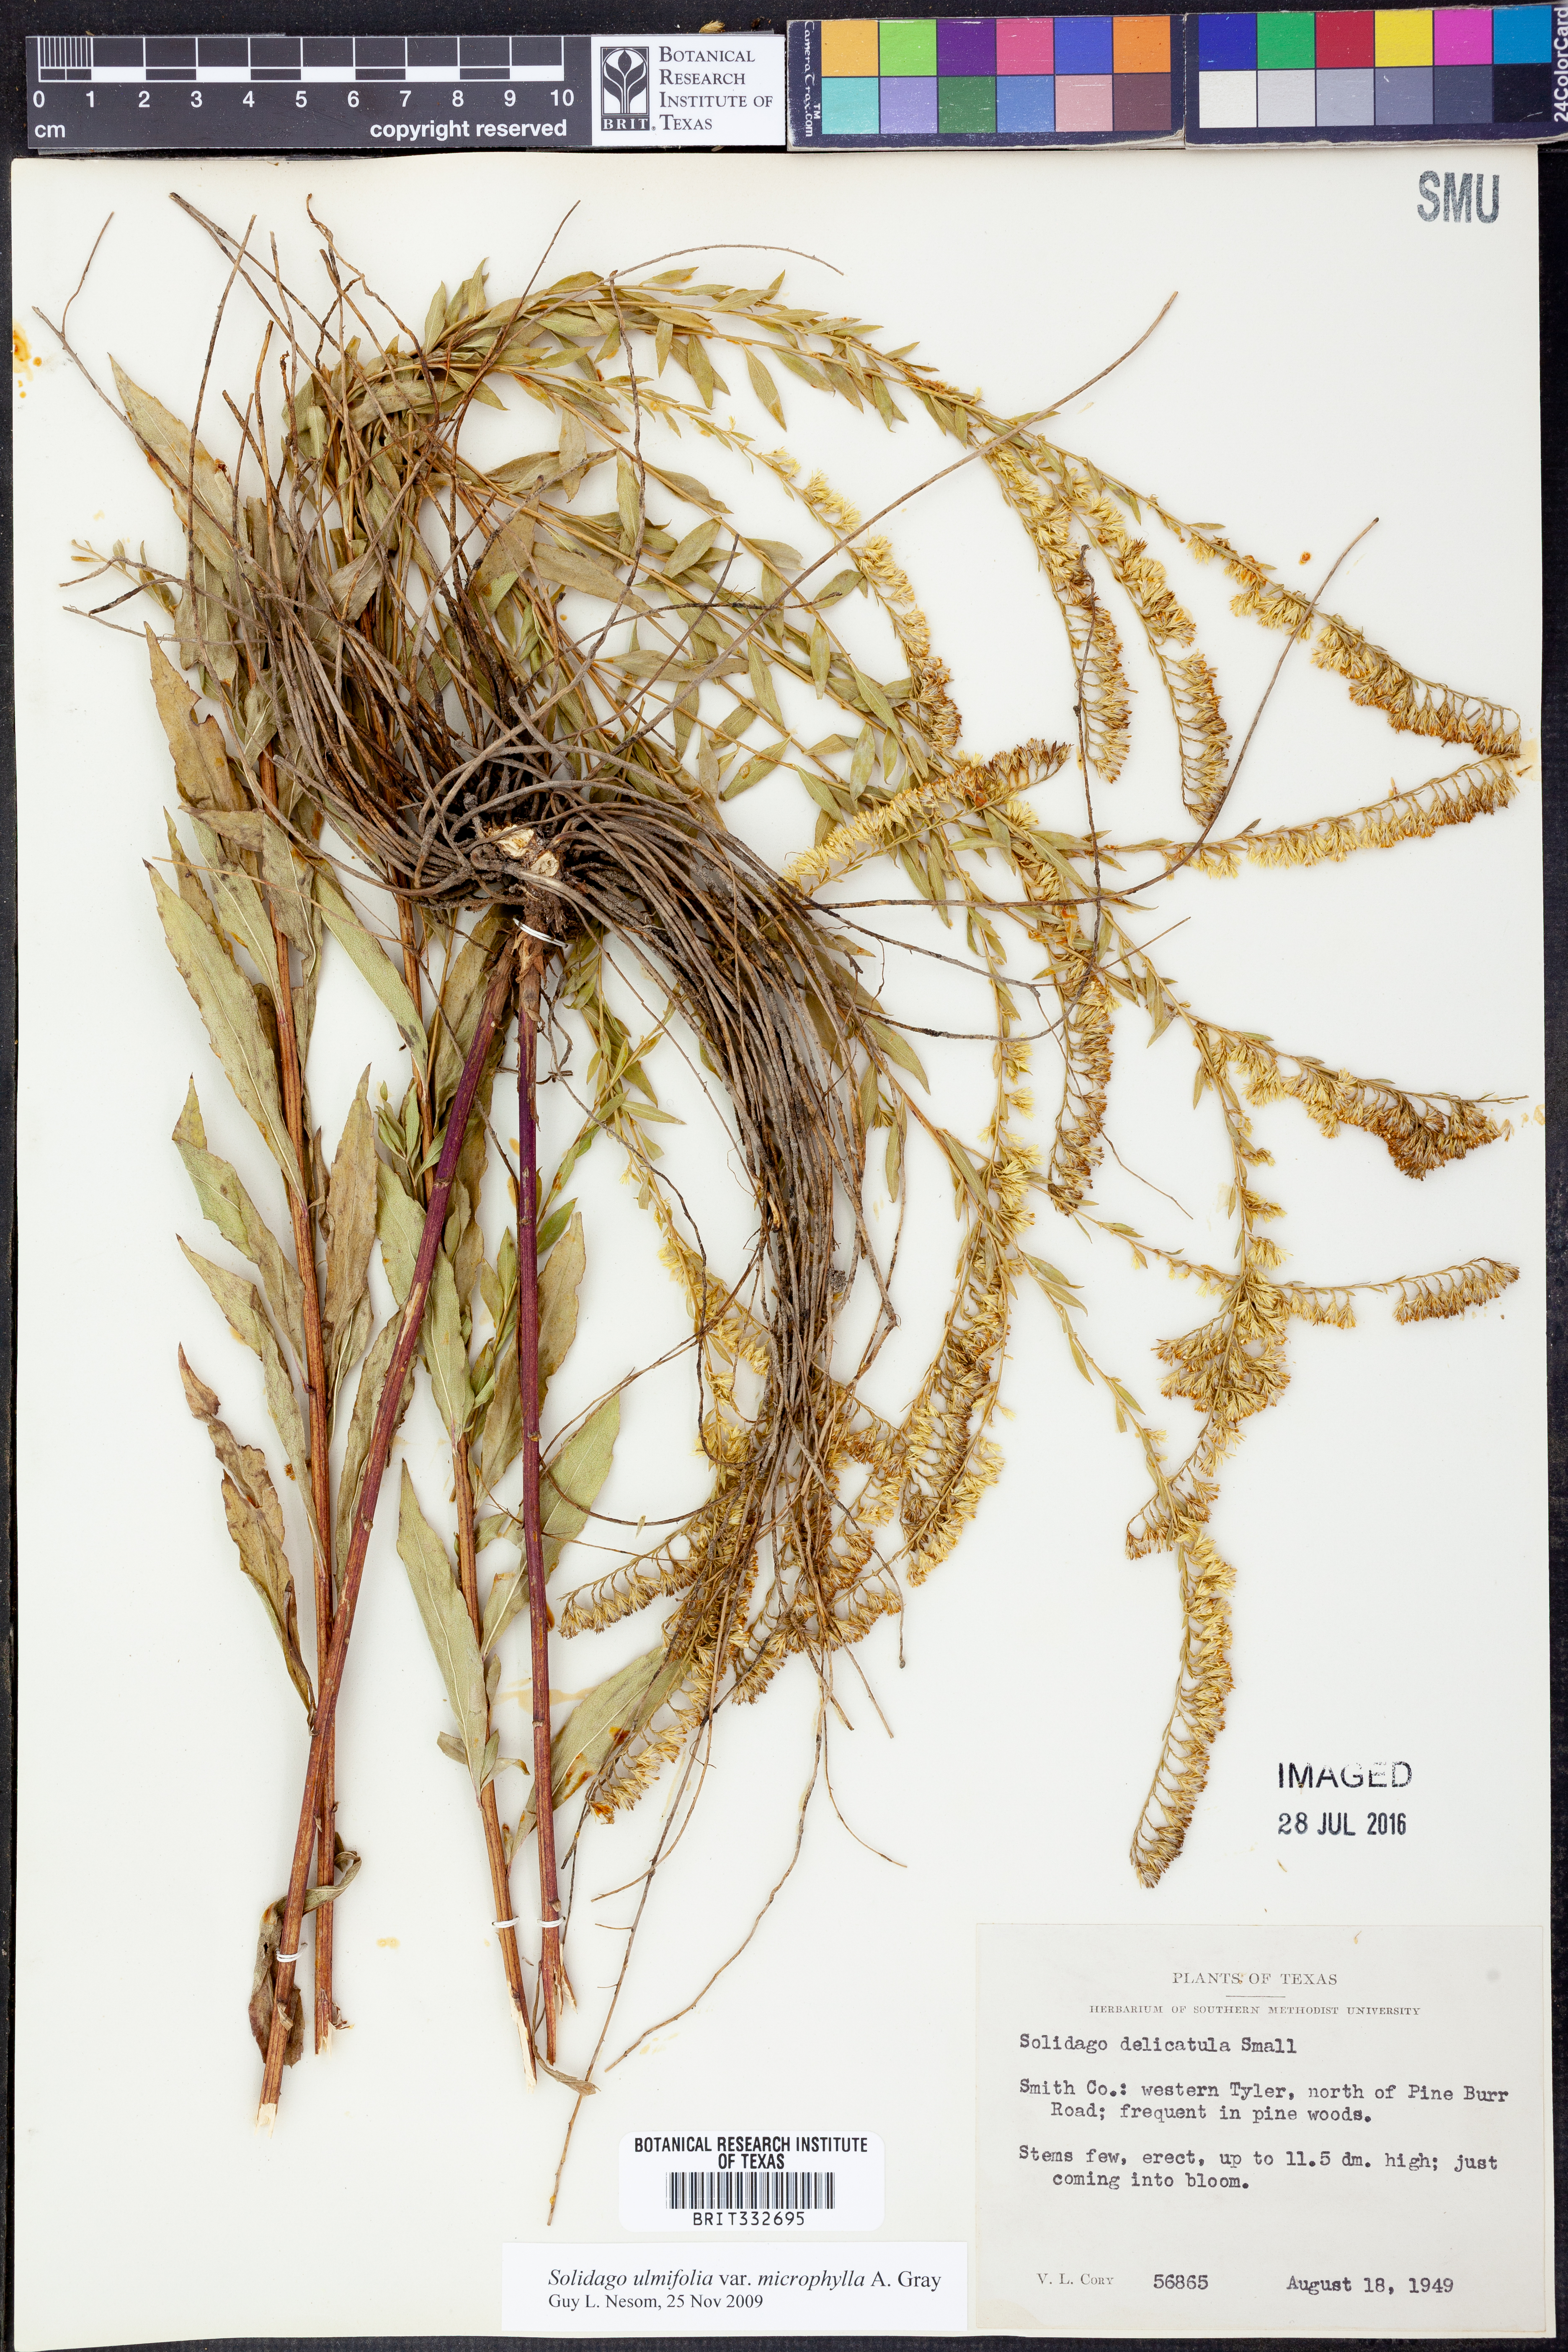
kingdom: Plantae
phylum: Tracheophyta
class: Magnoliopsida
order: Asterales
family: Asteraceae
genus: Solidago
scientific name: Solidago delicatula
